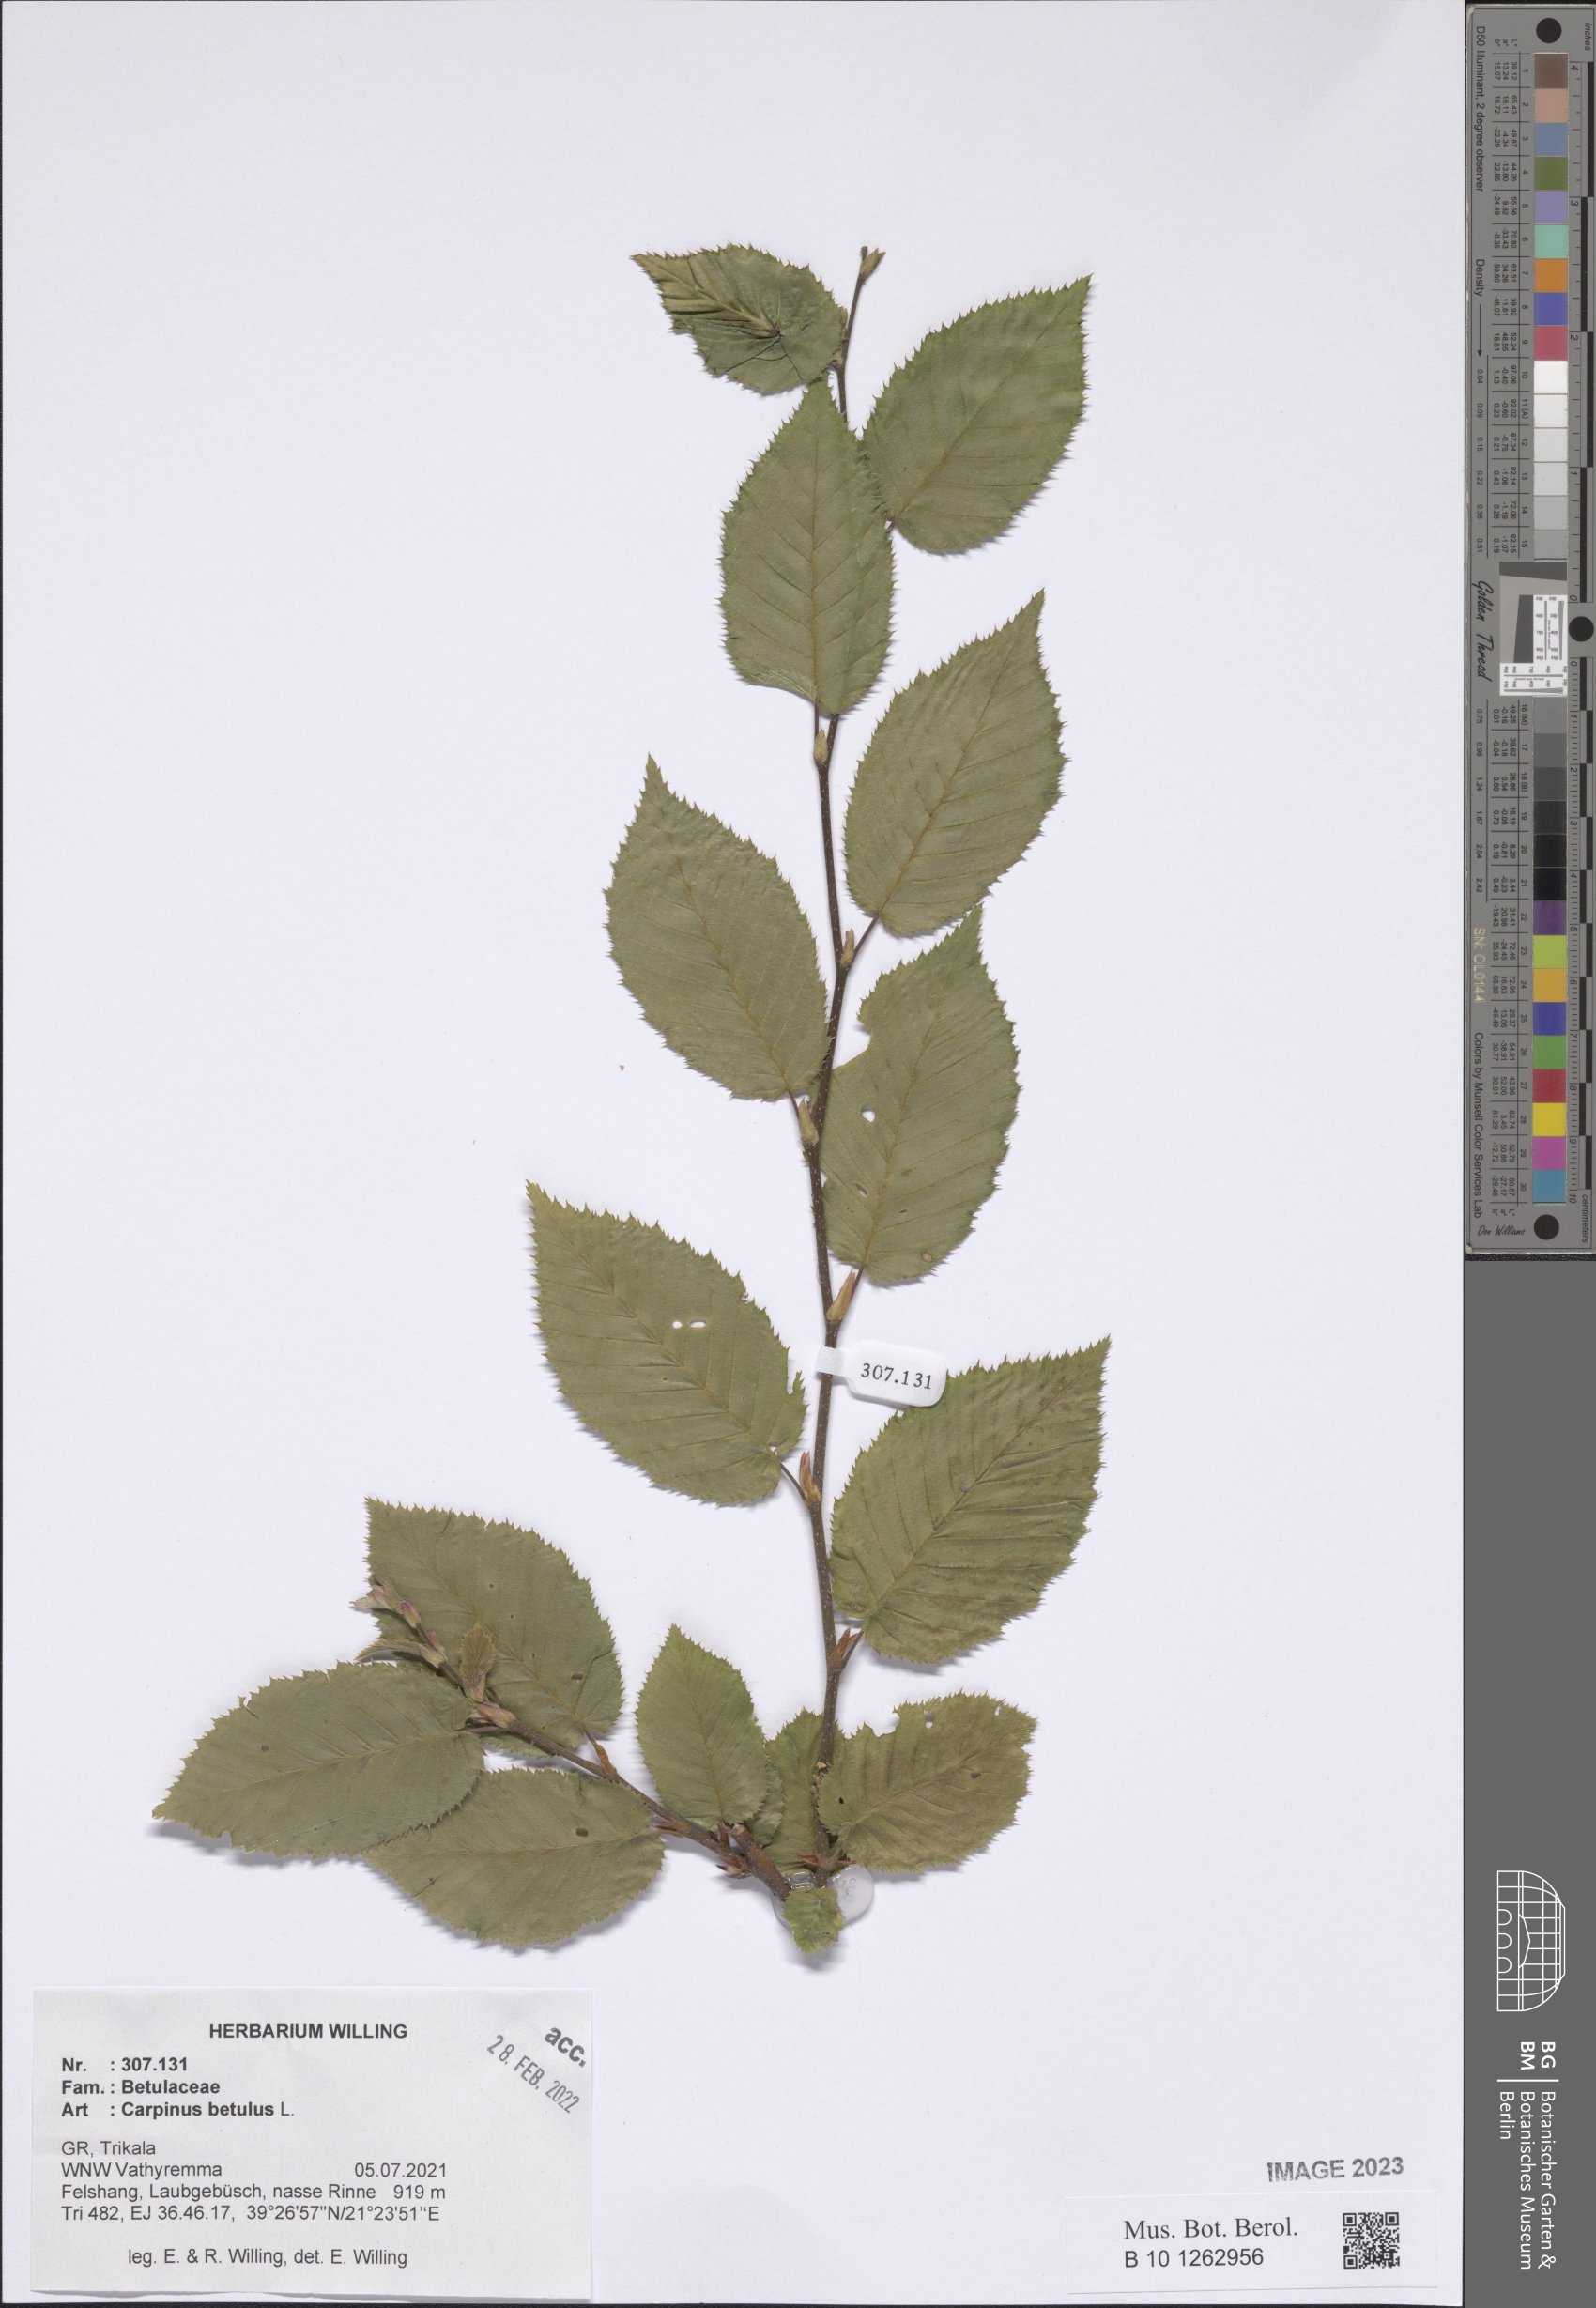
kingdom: Plantae
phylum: Tracheophyta
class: Magnoliopsida
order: Fagales
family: Betulaceae
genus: Carpinus
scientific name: Carpinus betulus
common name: Hornbeam
